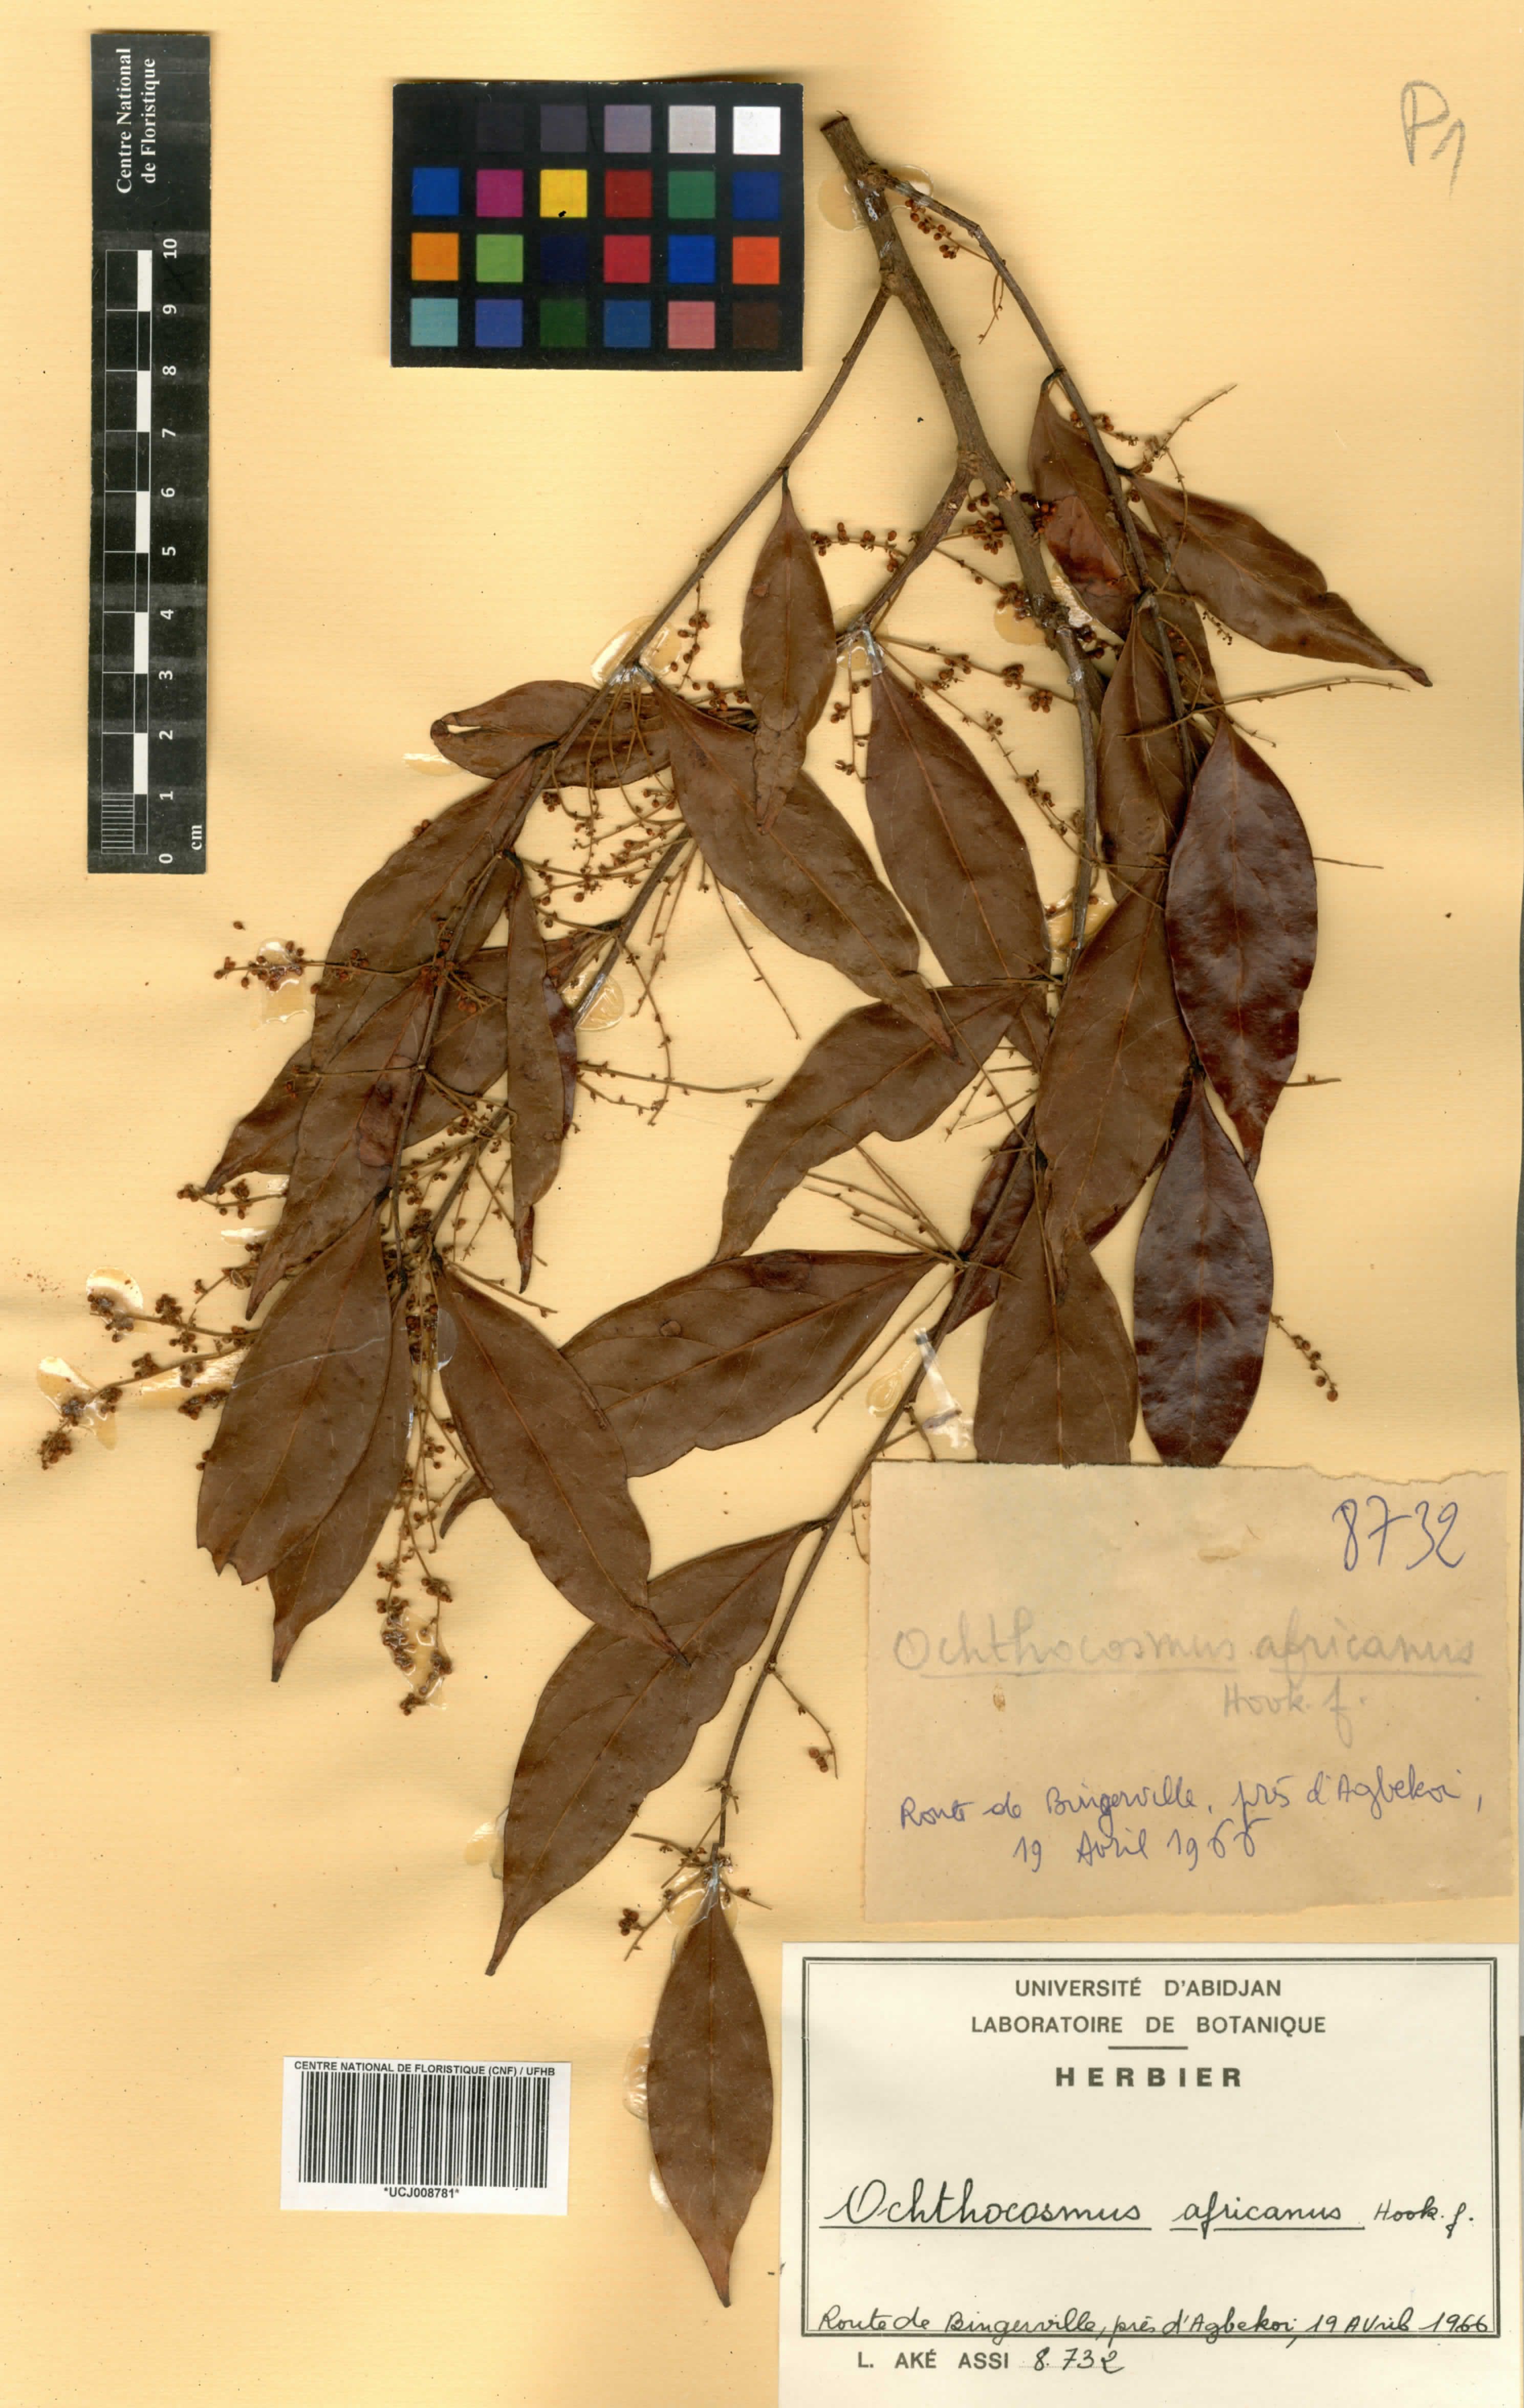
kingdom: Plantae
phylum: Tracheophyta
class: Magnoliopsida
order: Malpighiales
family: Ixonanthaceae
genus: Phyllocosmus
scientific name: Phyllocosmus africanus
